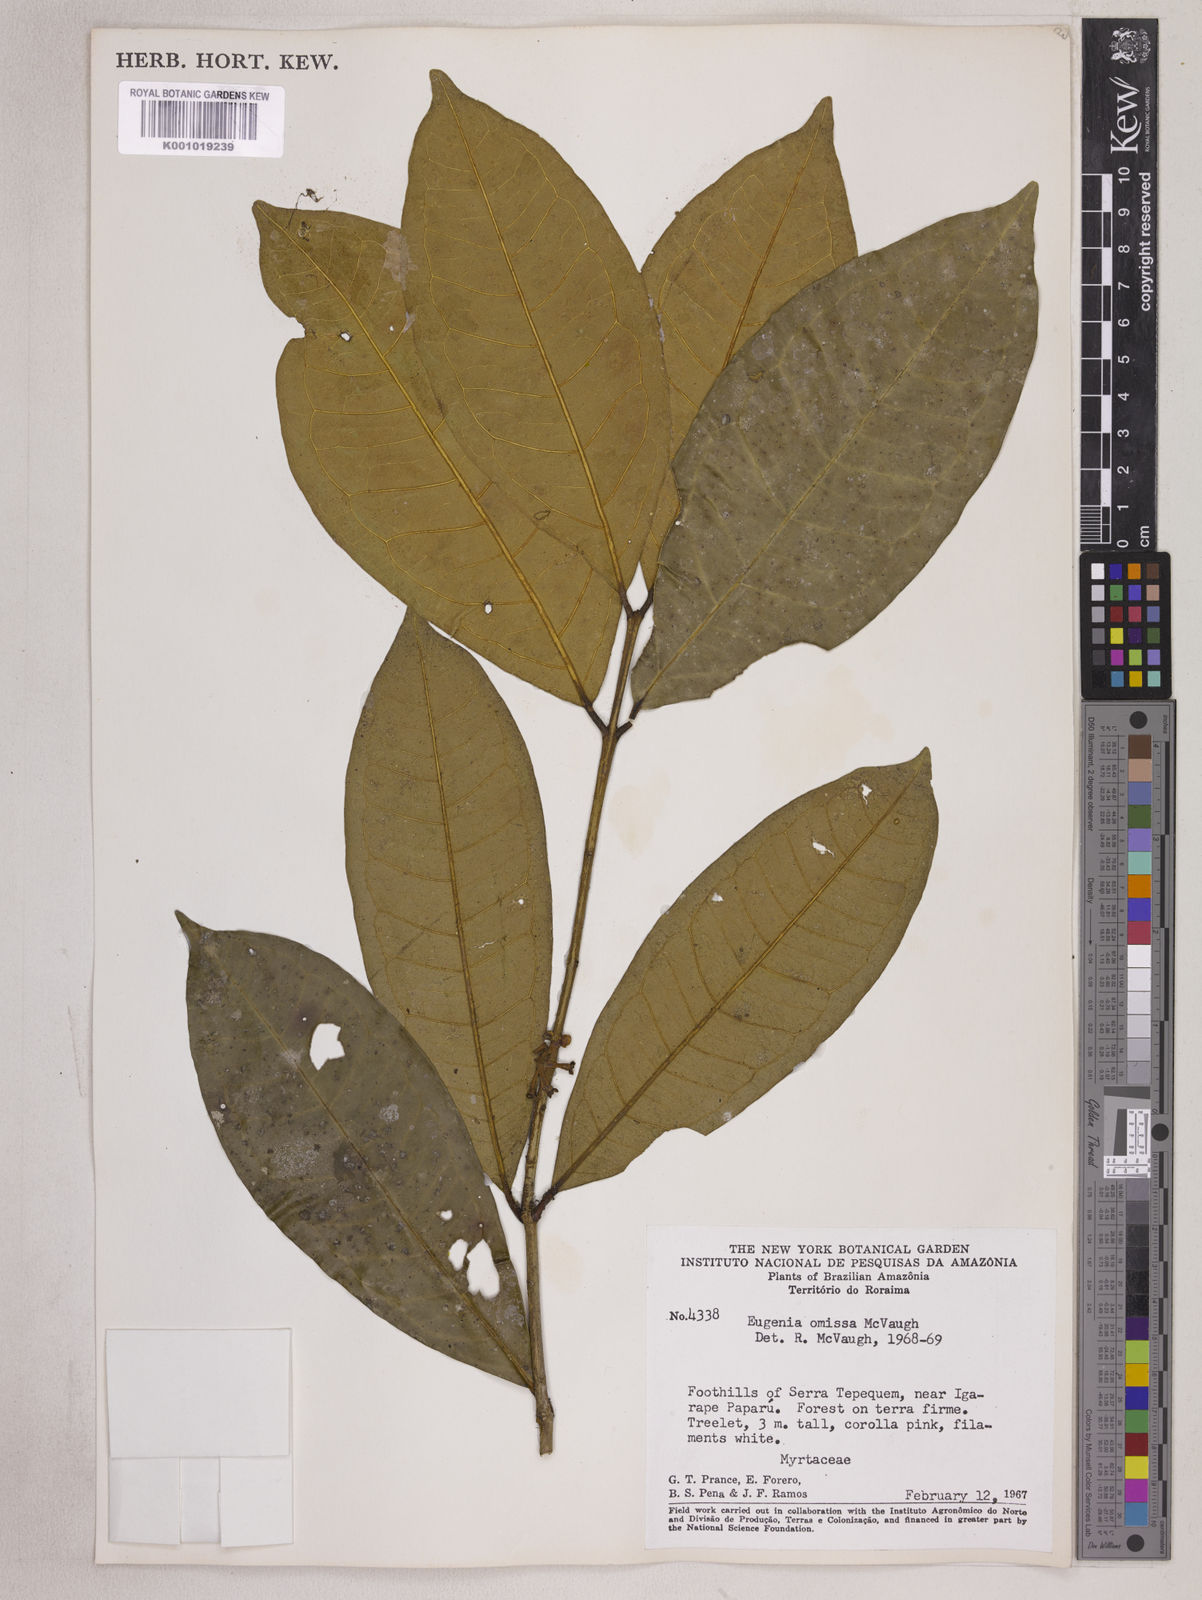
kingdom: Plantae
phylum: Tracheophyta
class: Magnoliopsida
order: Myrtales
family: Myrtaceae
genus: Eugenia
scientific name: Eugenia omissa
